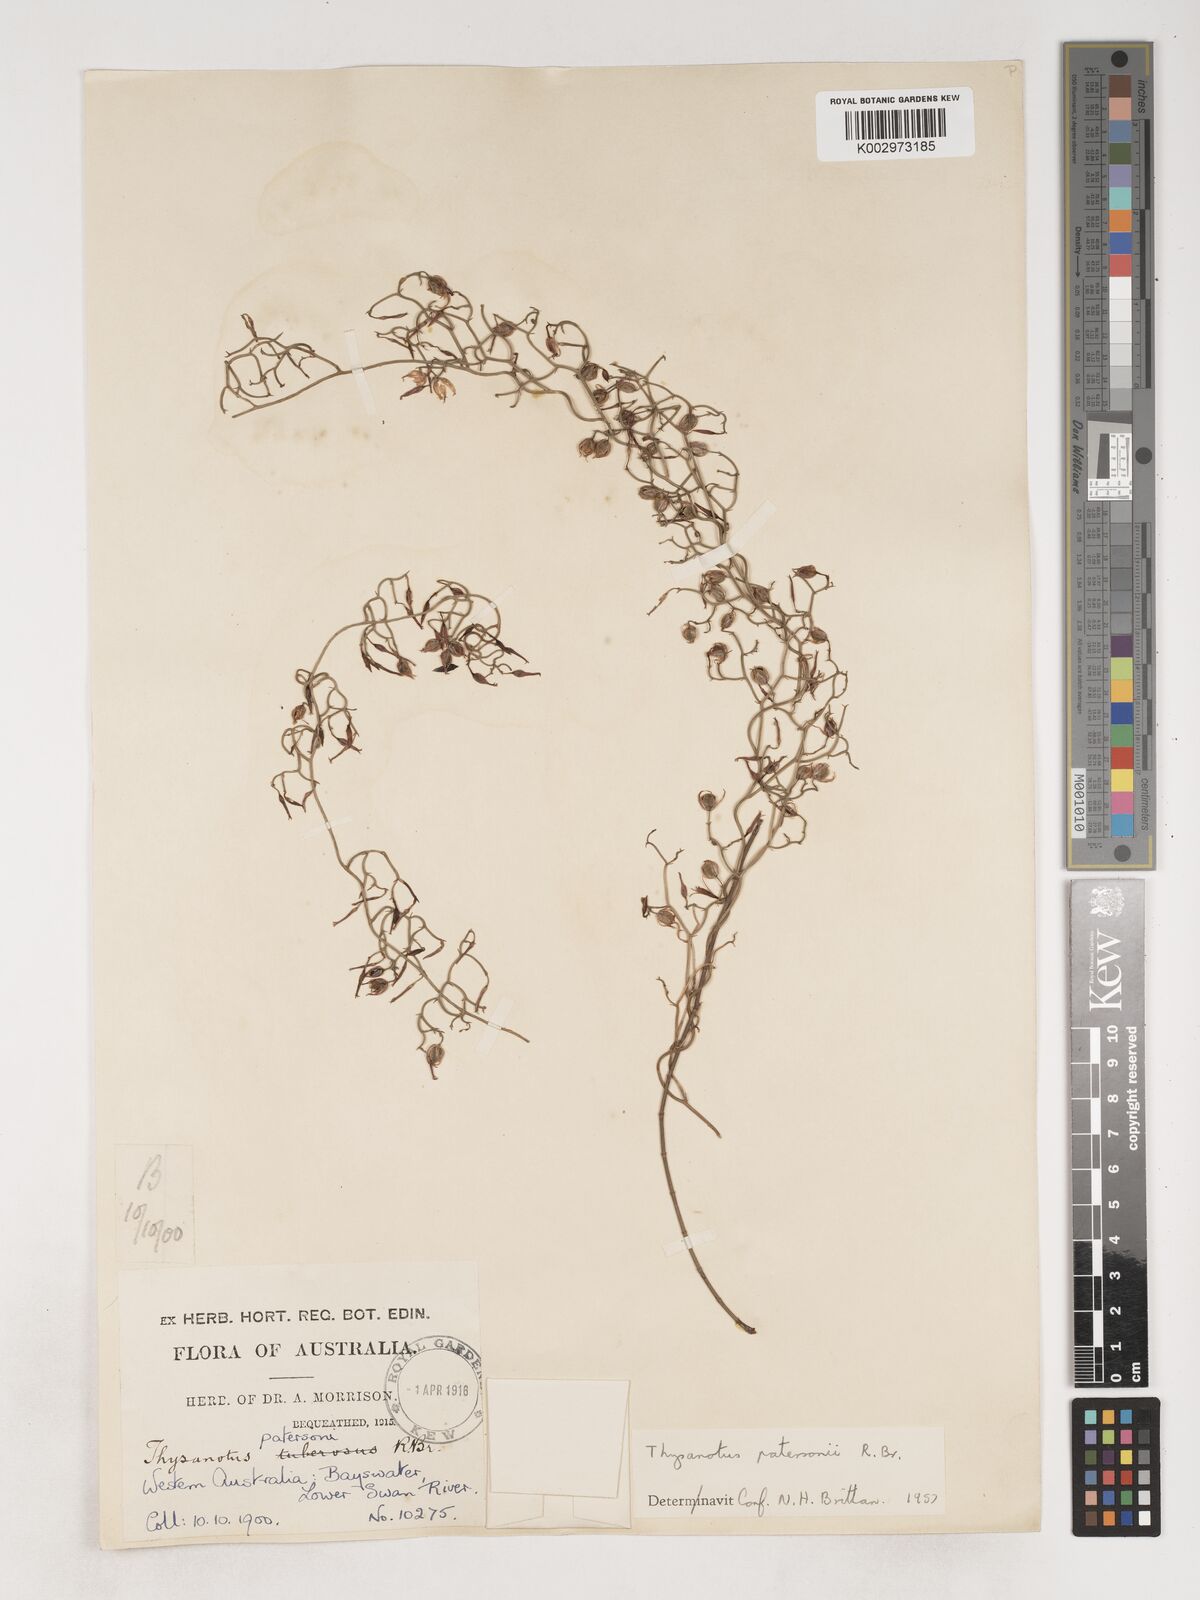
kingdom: Plantae
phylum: Tracheophyta
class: Liliopsida
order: Asparagales
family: Asparagaceae
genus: Thysanotus
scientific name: Thysanotus patersonii
